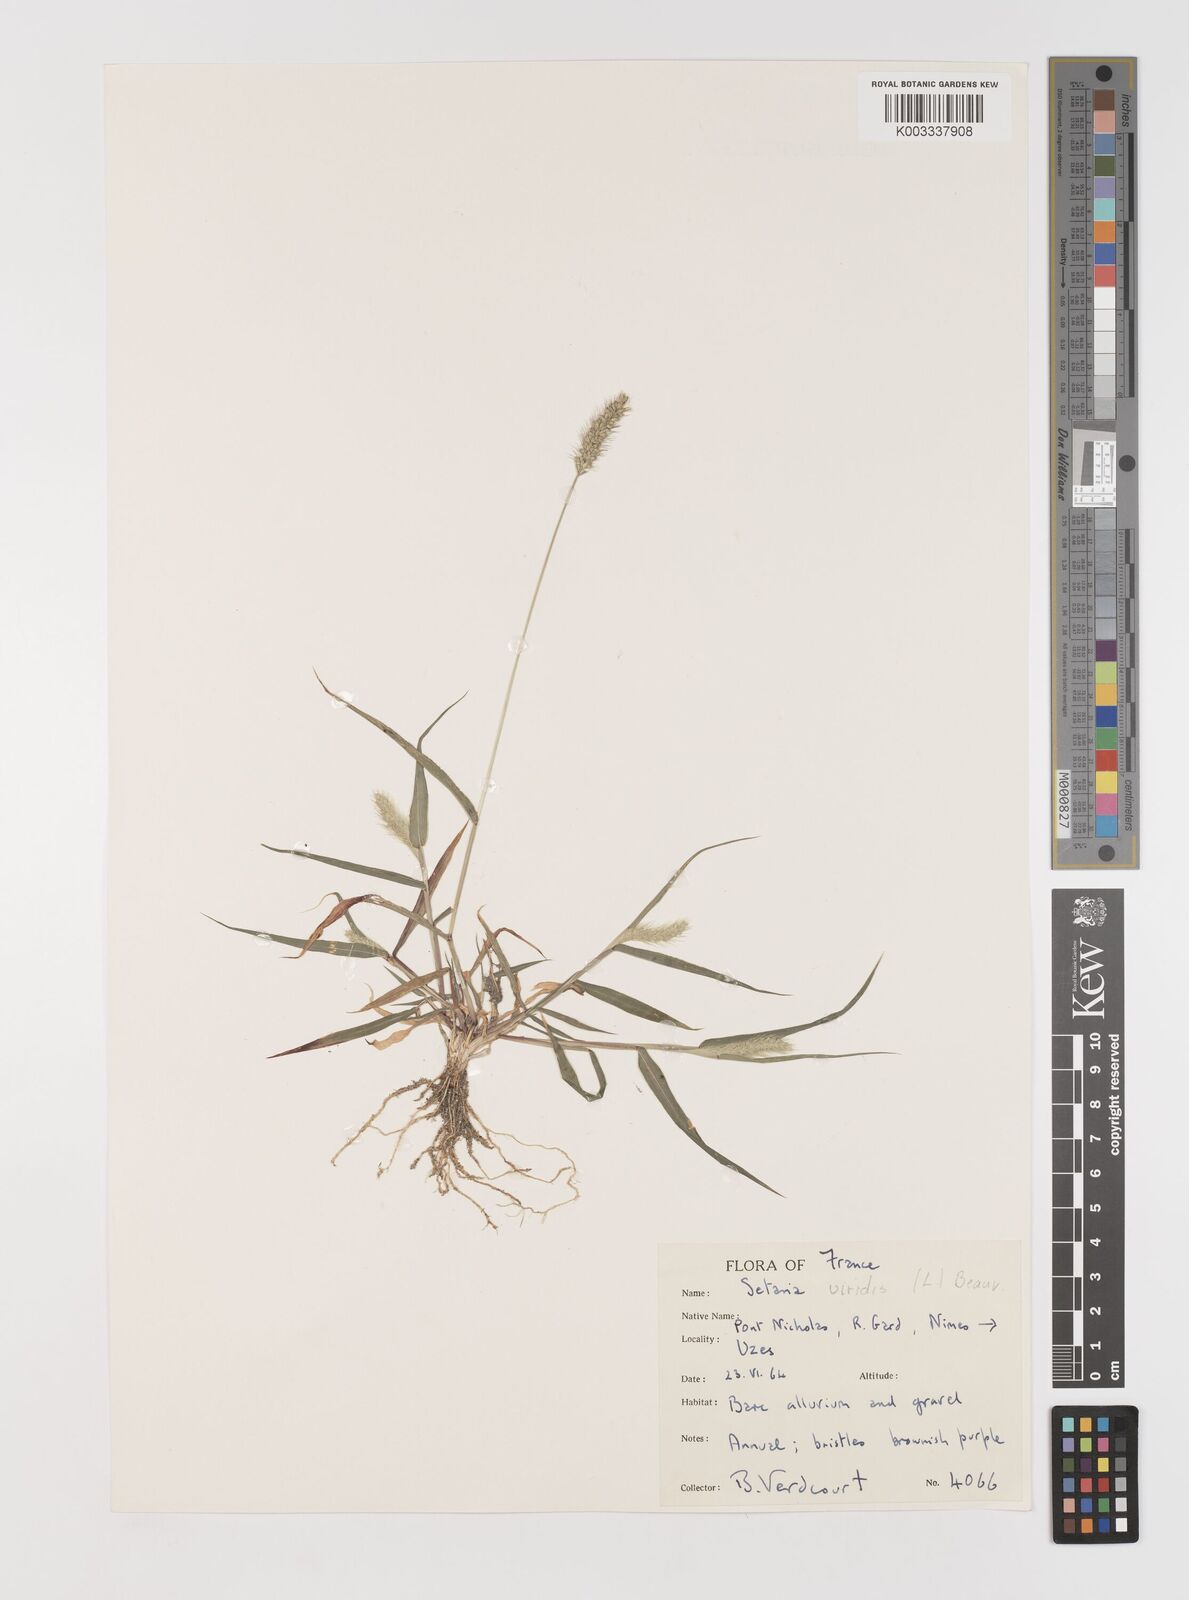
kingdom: Plantae
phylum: Tracheophyta
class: Liliopsida
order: Poales
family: Poaceae
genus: Setaria
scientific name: Setaria viridis
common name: Green bristlegrass
